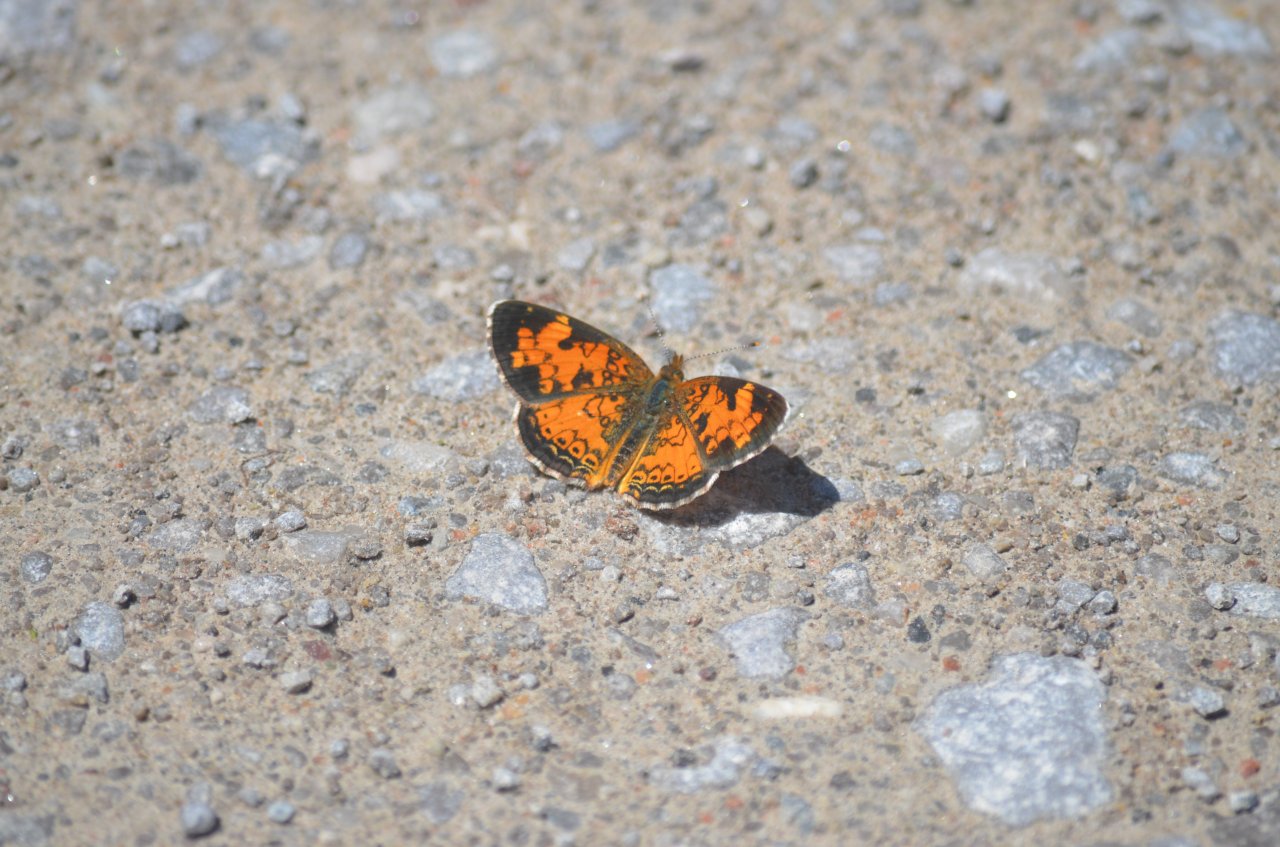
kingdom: Animalia
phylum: Arthropoda
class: Insecta
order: Lepidoptera
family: Nymphalidae
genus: Phyciodes
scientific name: Phyciodes tharos
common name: Northern Crescent
